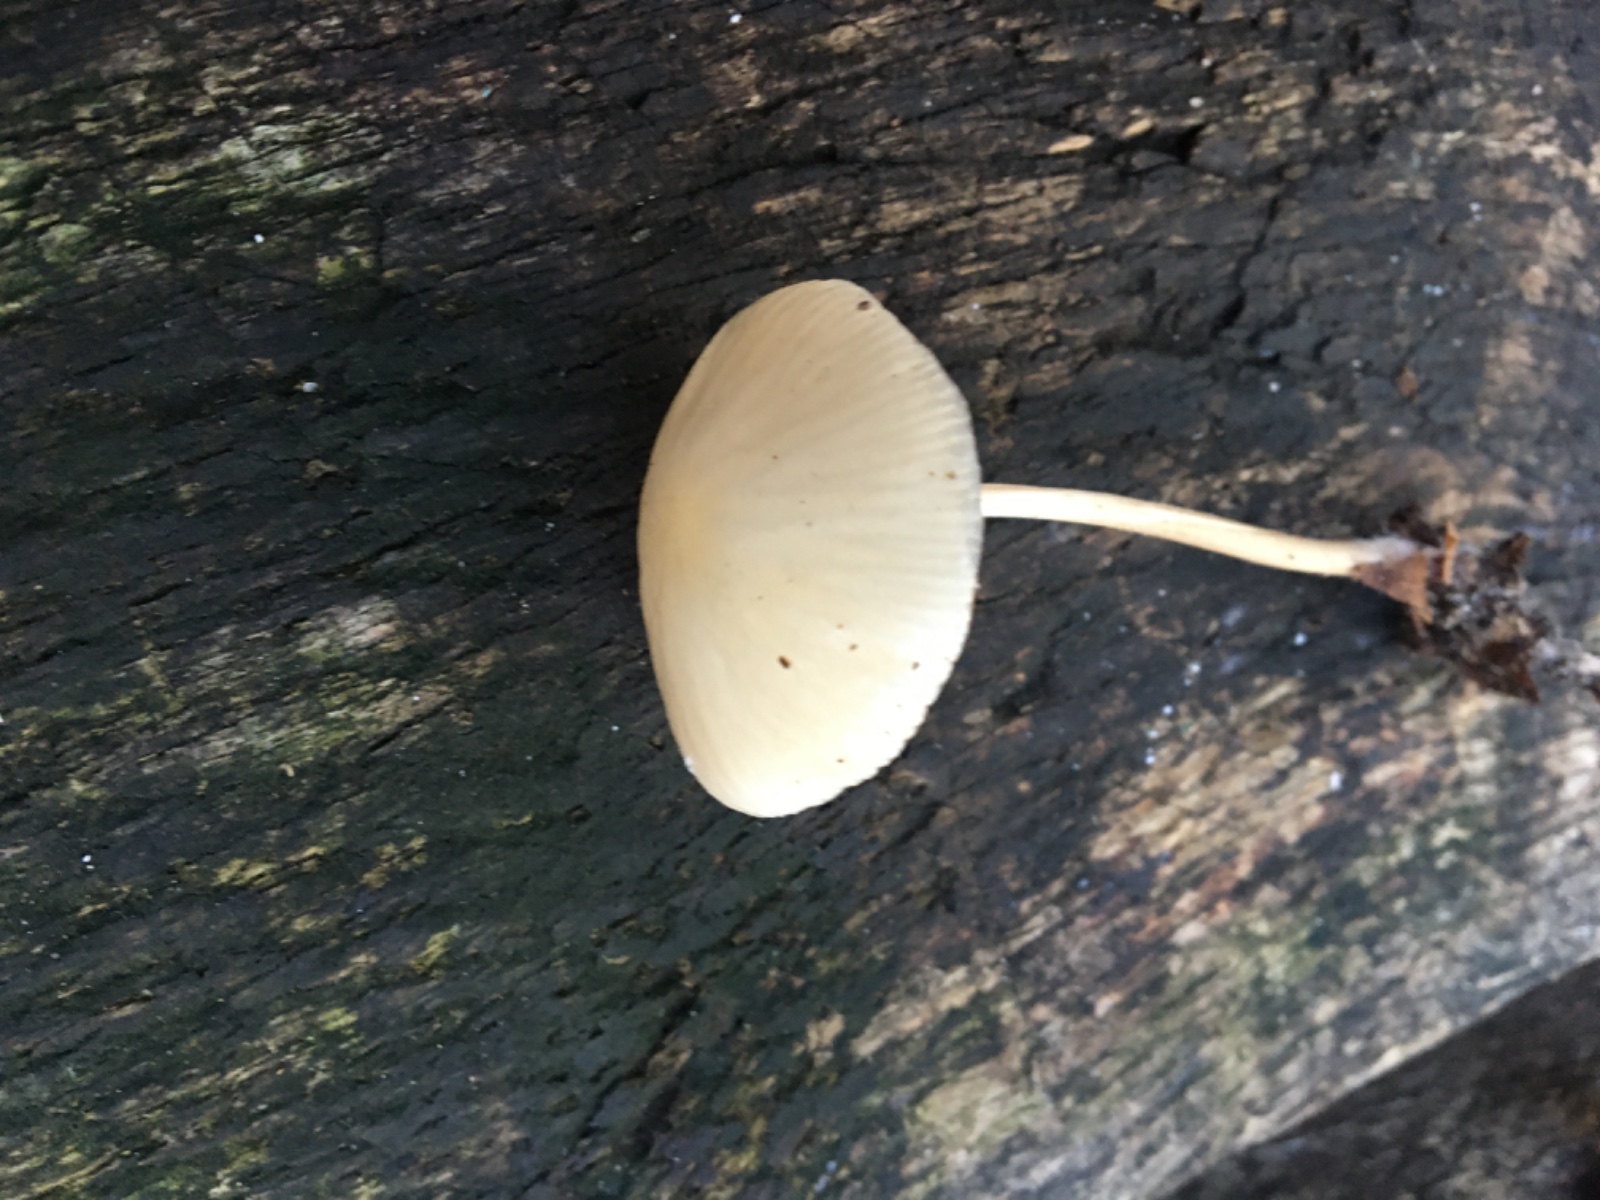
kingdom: Fungi
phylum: Basidiomycota
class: Agaricomycetes
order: Agaricales
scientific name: Agaricales
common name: champignonordenen
